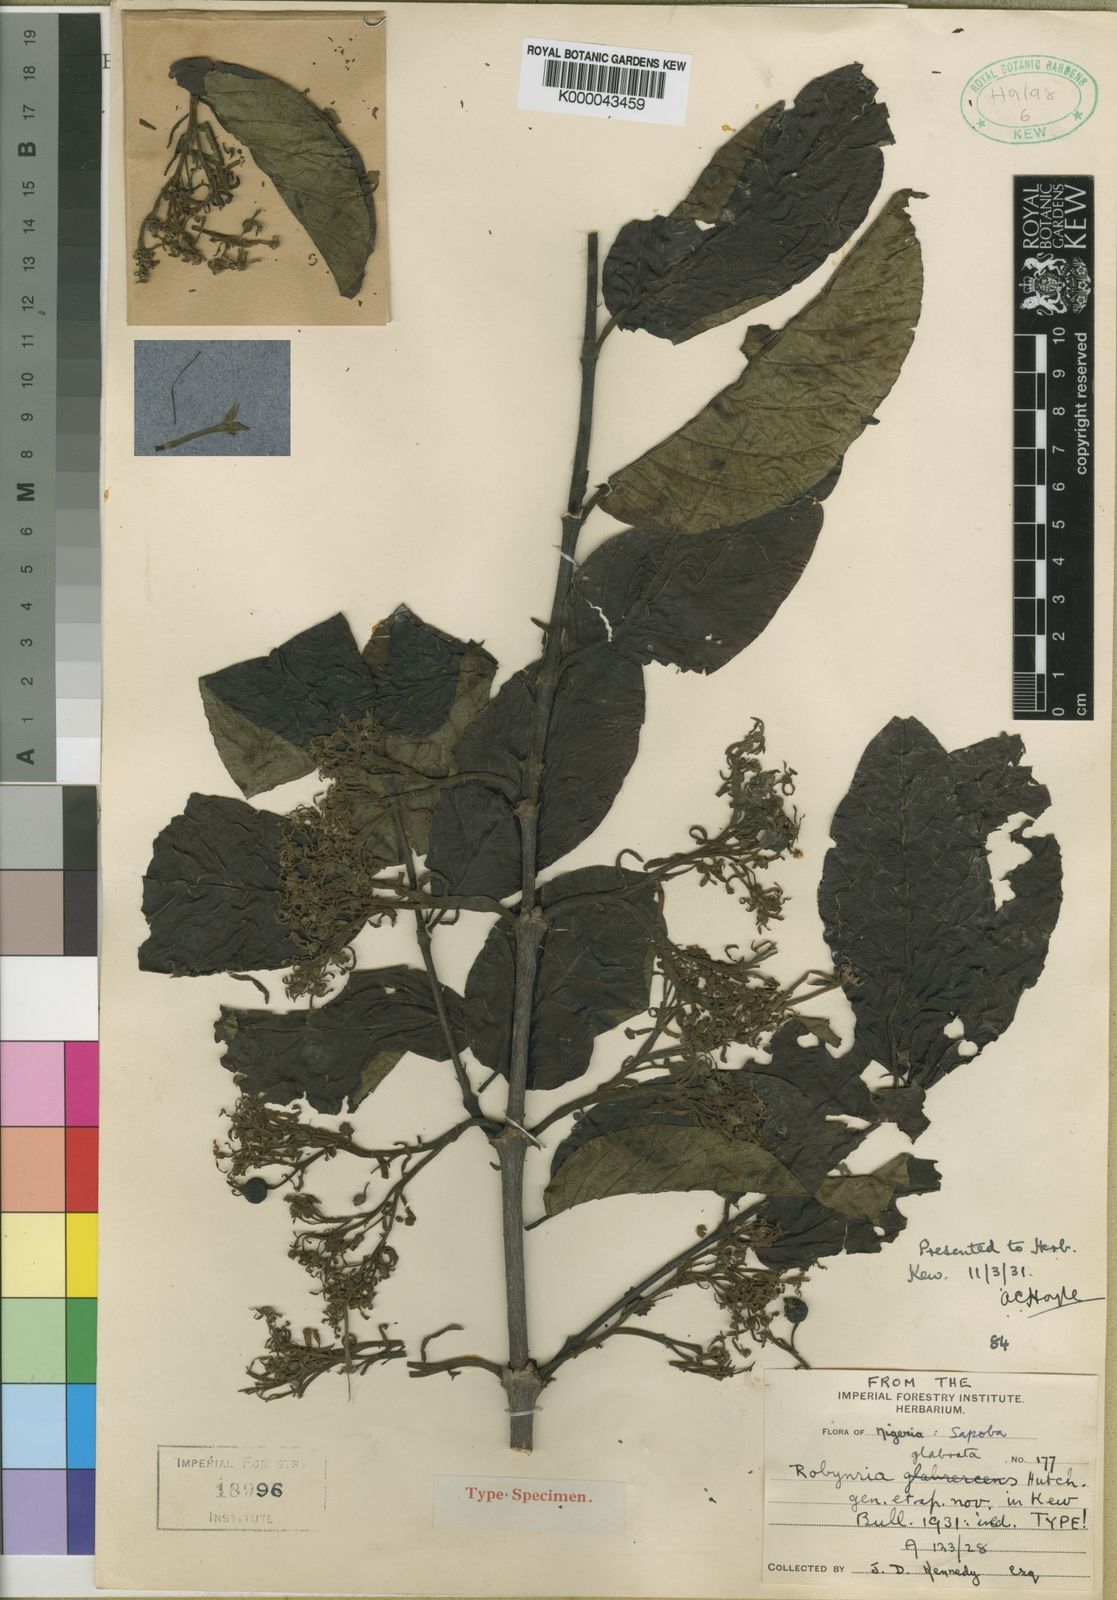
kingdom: Plantae
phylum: Tracheophyta
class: Magnoliopsida
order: Gentianales
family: Rubiaceae
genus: Robynsia
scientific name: Robynsia glabrata
